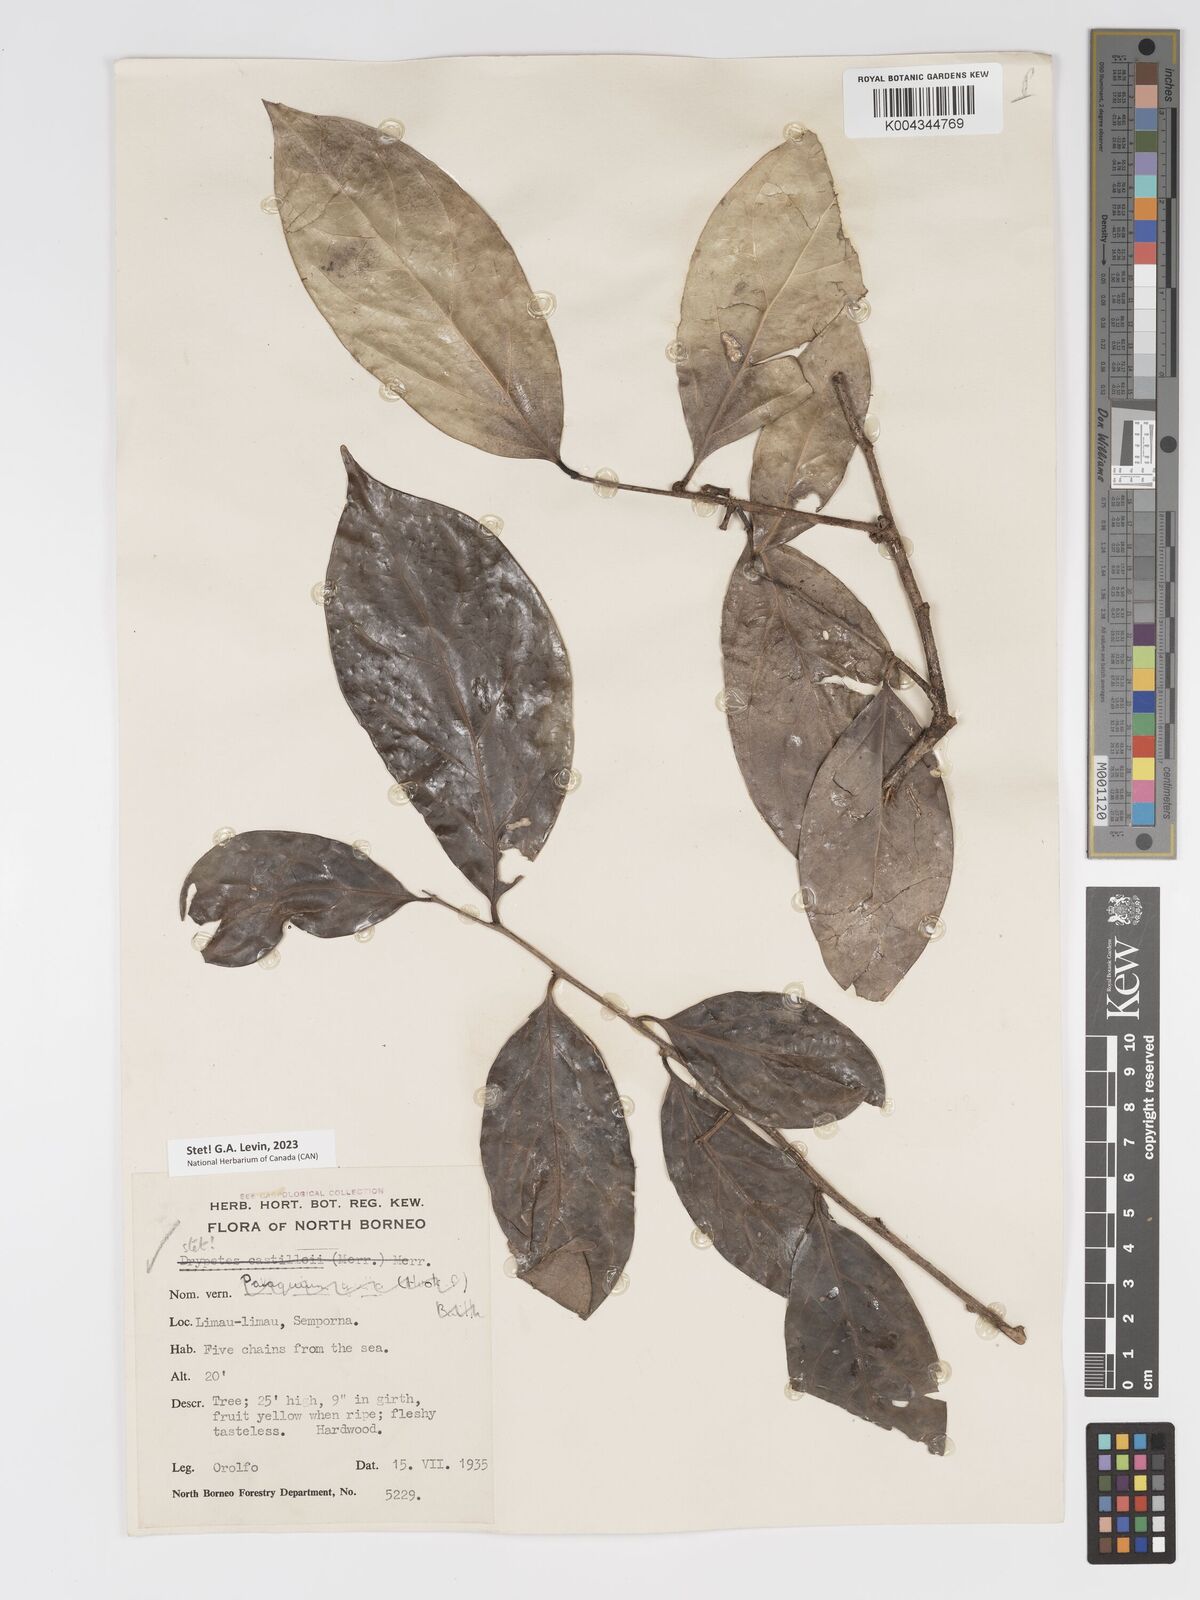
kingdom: Plantae
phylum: Tracheophyta
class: Magnoliopsida
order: Malpighiales
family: Putranjivaceae
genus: Drypetes
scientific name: Drypetes castilloi
